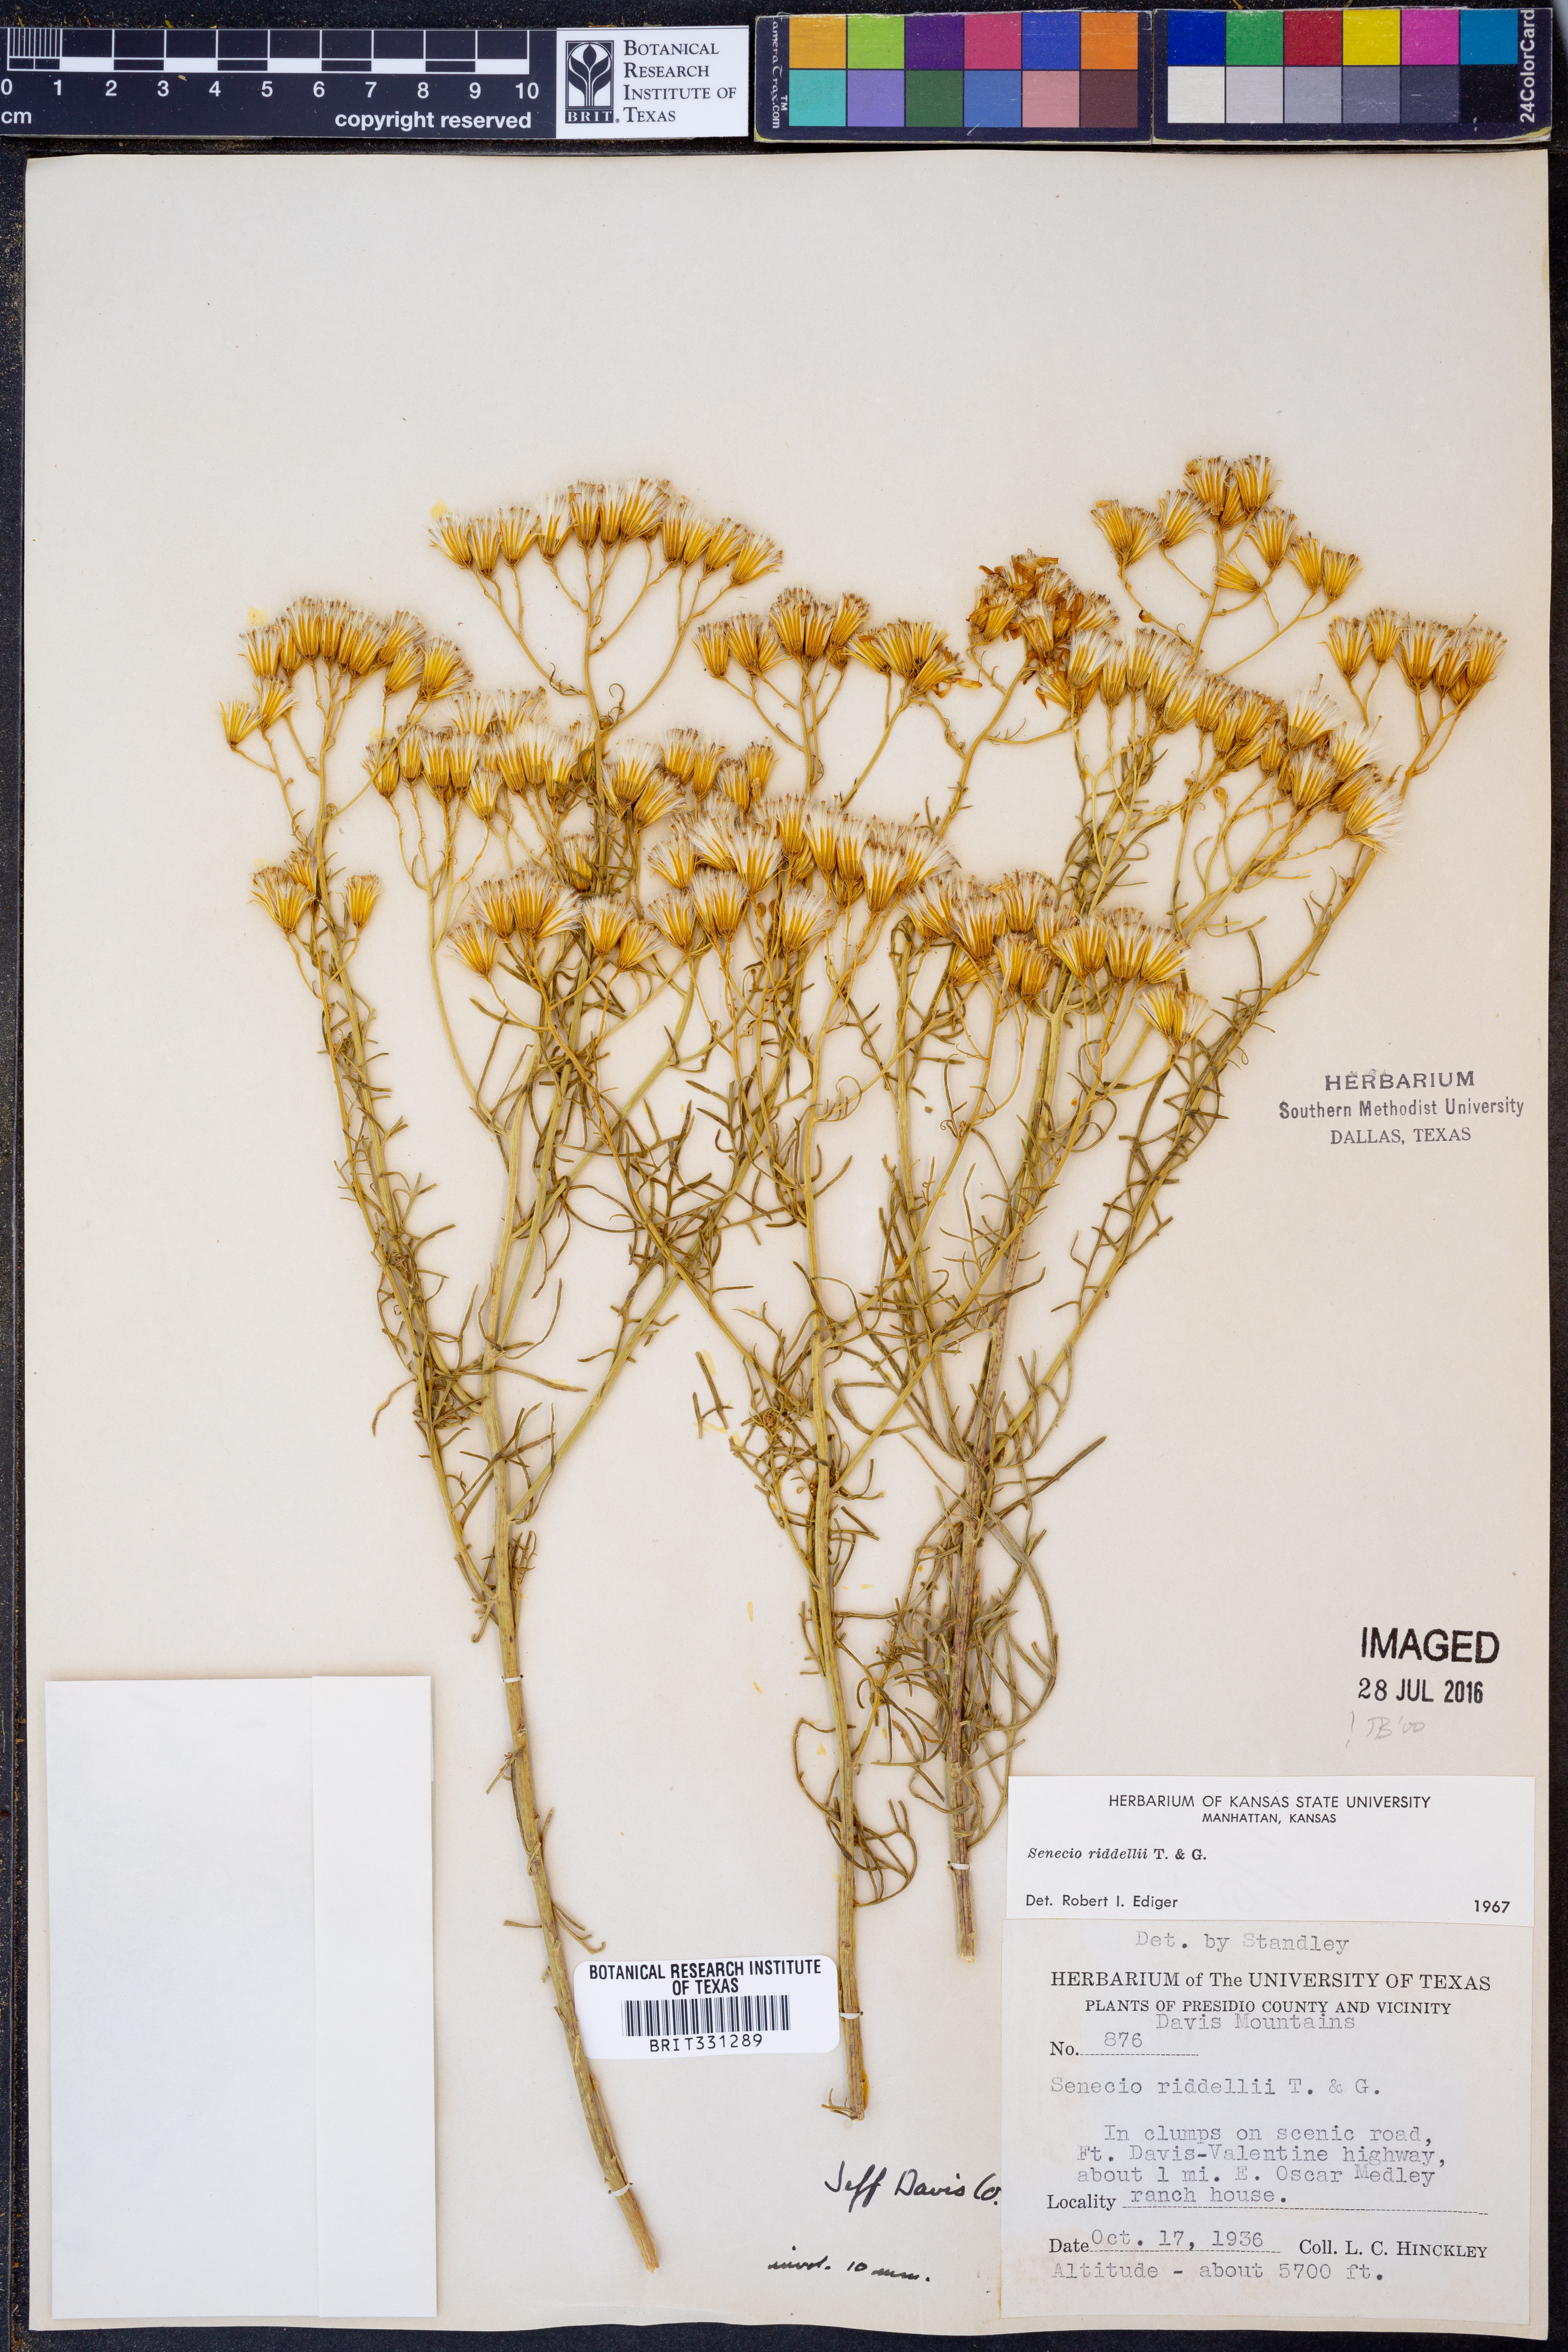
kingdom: Plantae
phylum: Tracheophyta
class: Magnoliopsida
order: Asterales
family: Asteraceae
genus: Senecio
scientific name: Senecio riddellii
